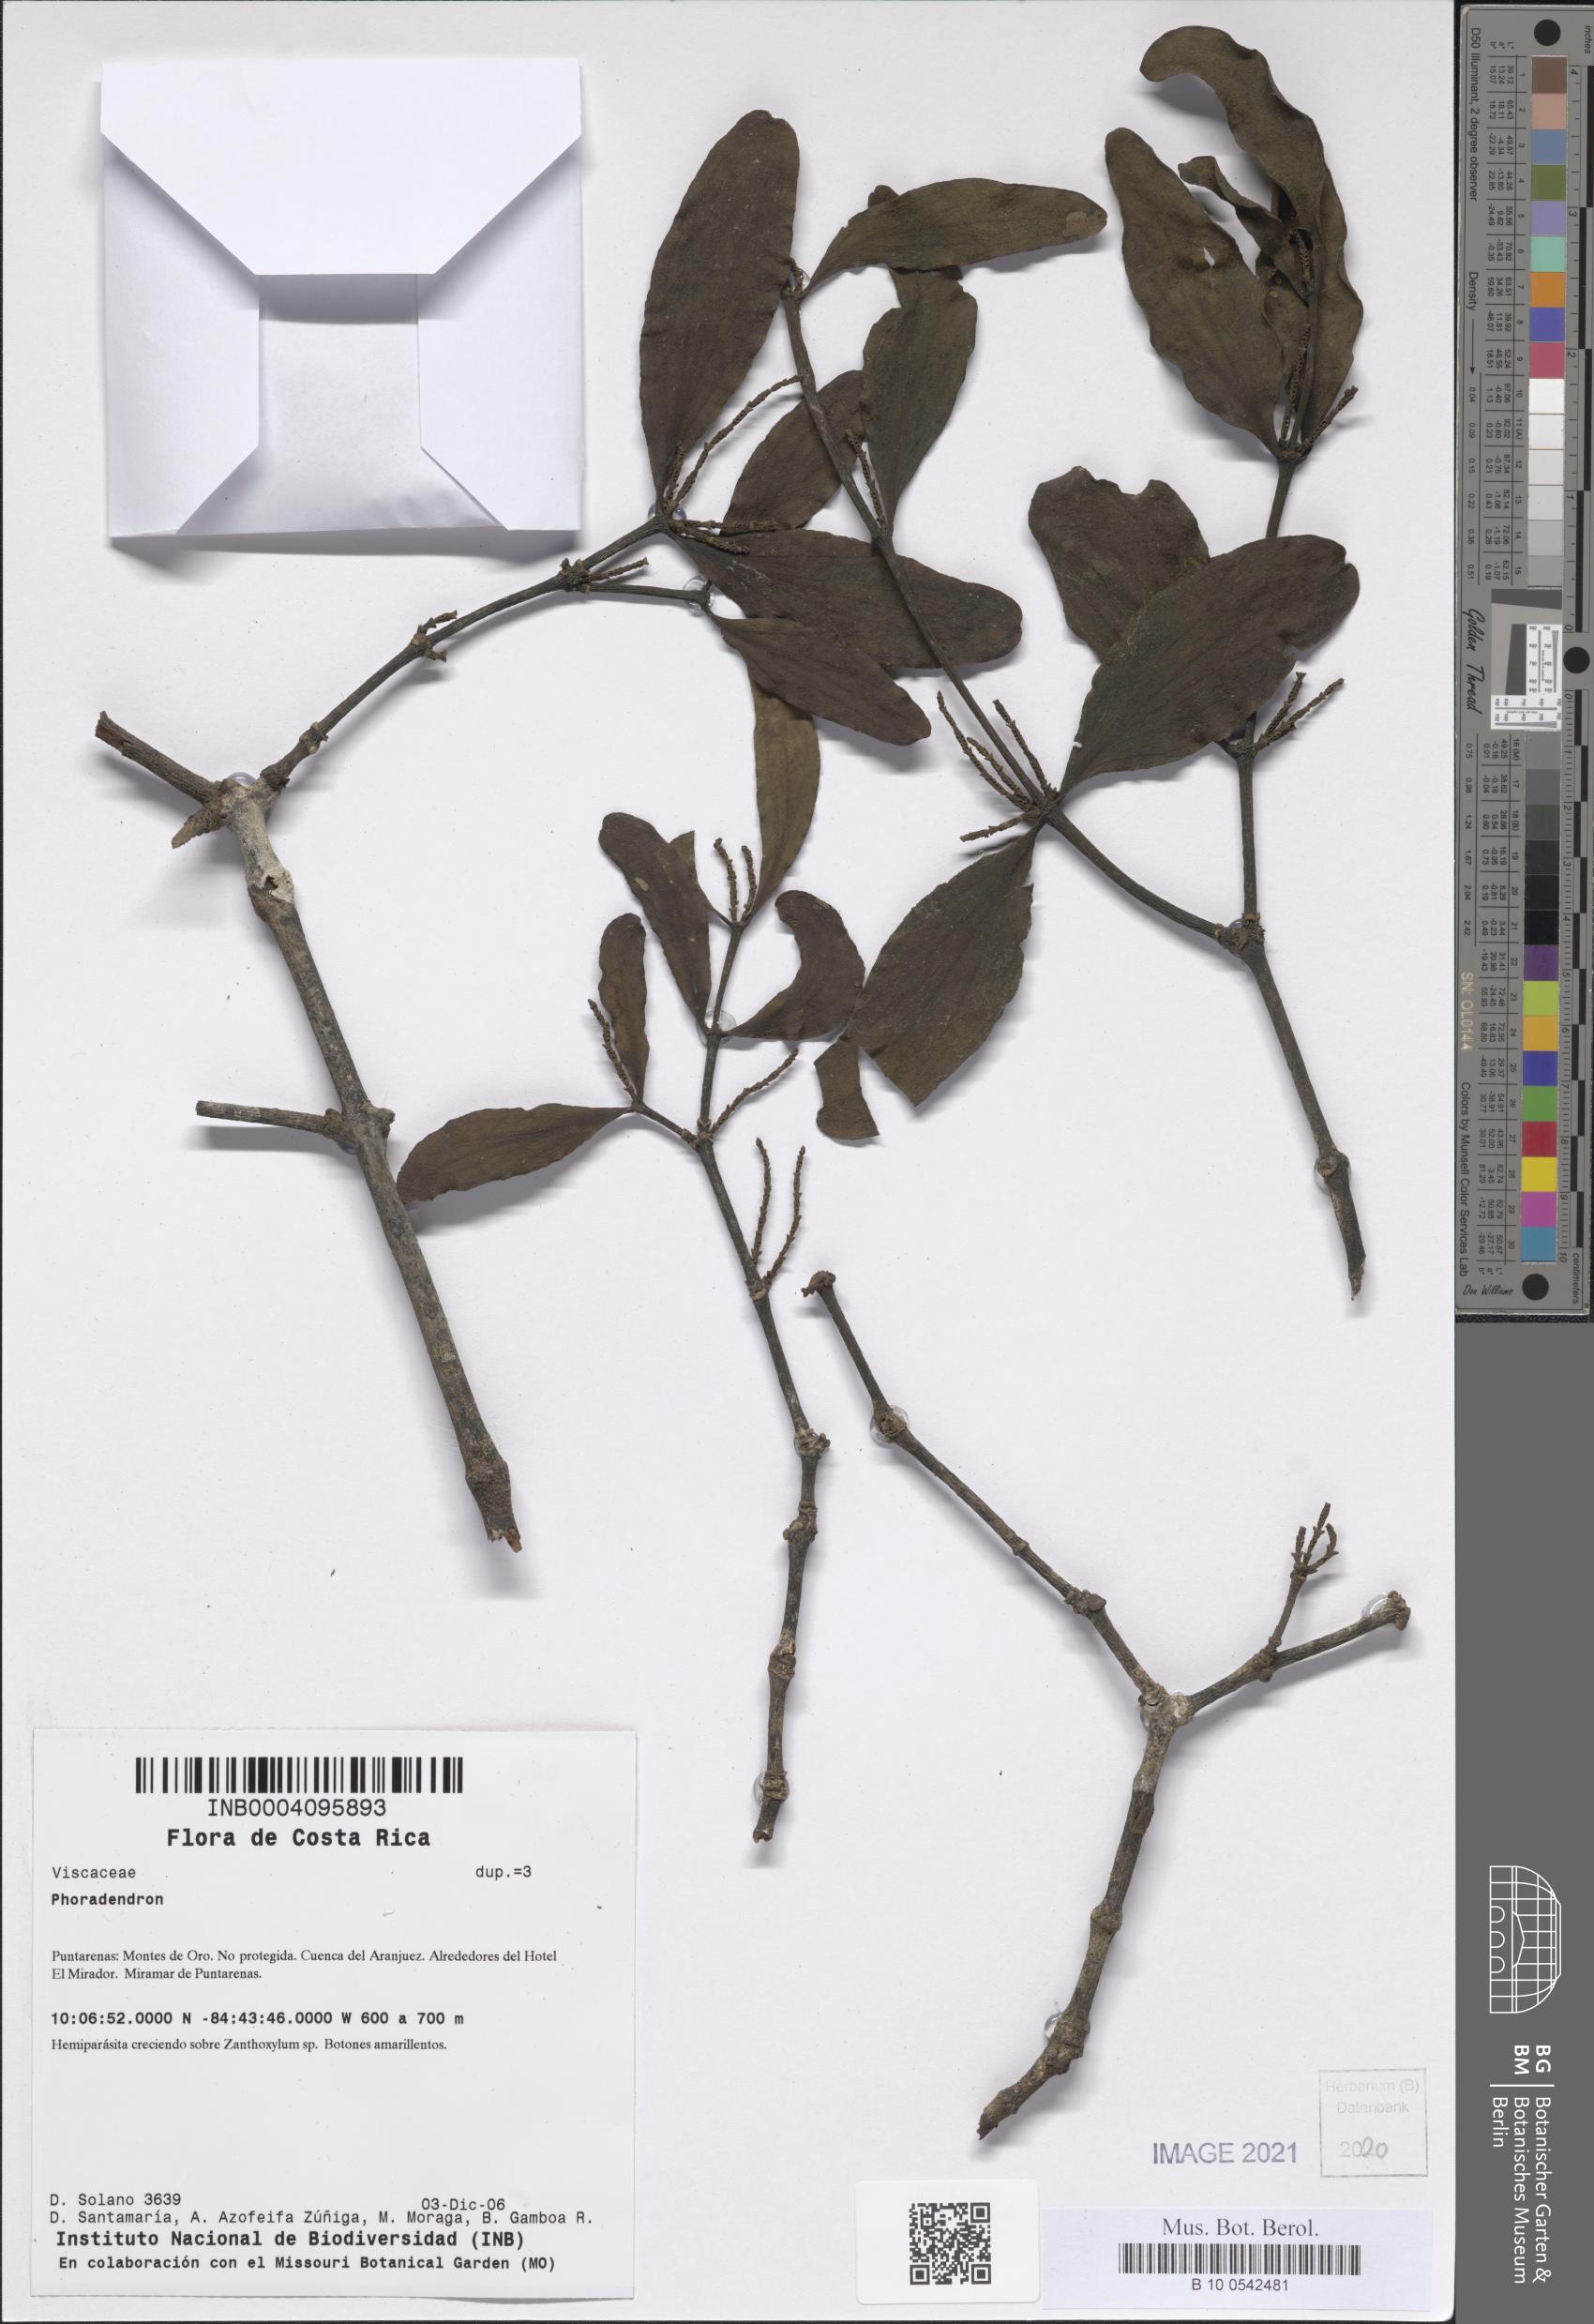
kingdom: Plantae
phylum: Tracheophyta
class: Magnoliopsida
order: Santalales
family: Viscaceae
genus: Phoradendron
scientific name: Phoradendron
